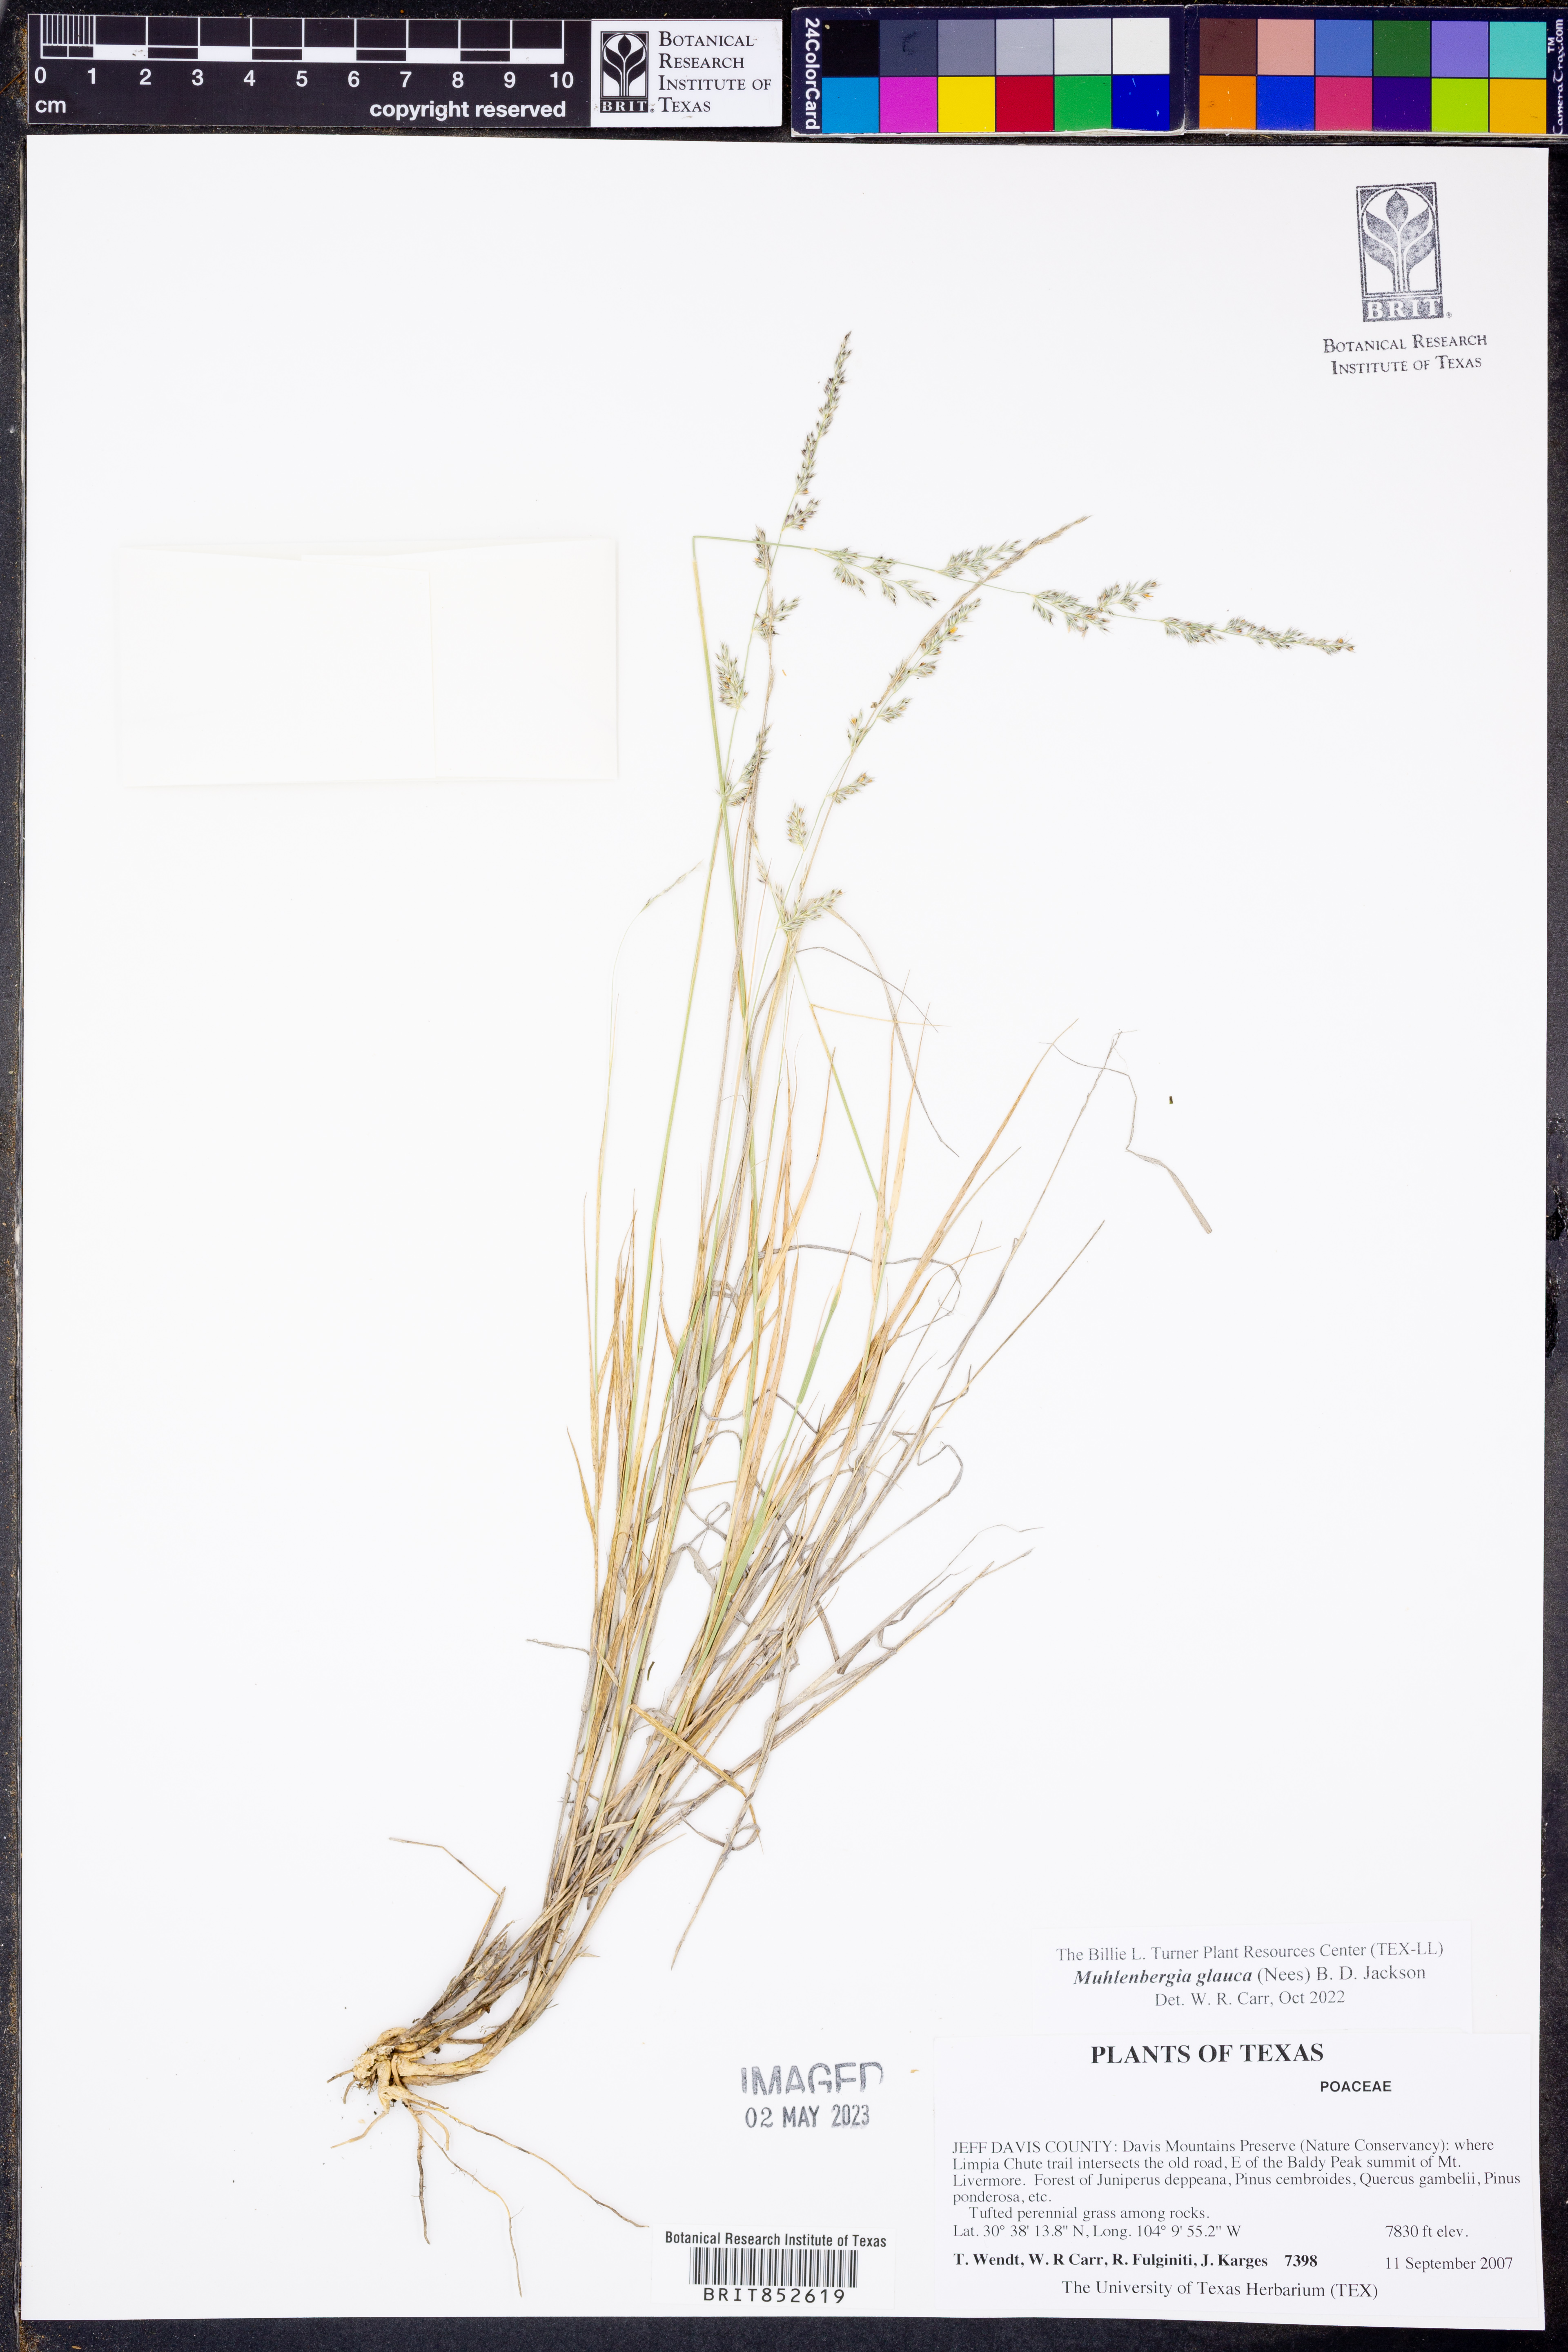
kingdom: Plantae
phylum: Tracheophyta
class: Liliopsida
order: Poales
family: Poaceae
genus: Muhlenbergia
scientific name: Muhlenbergia glauca
